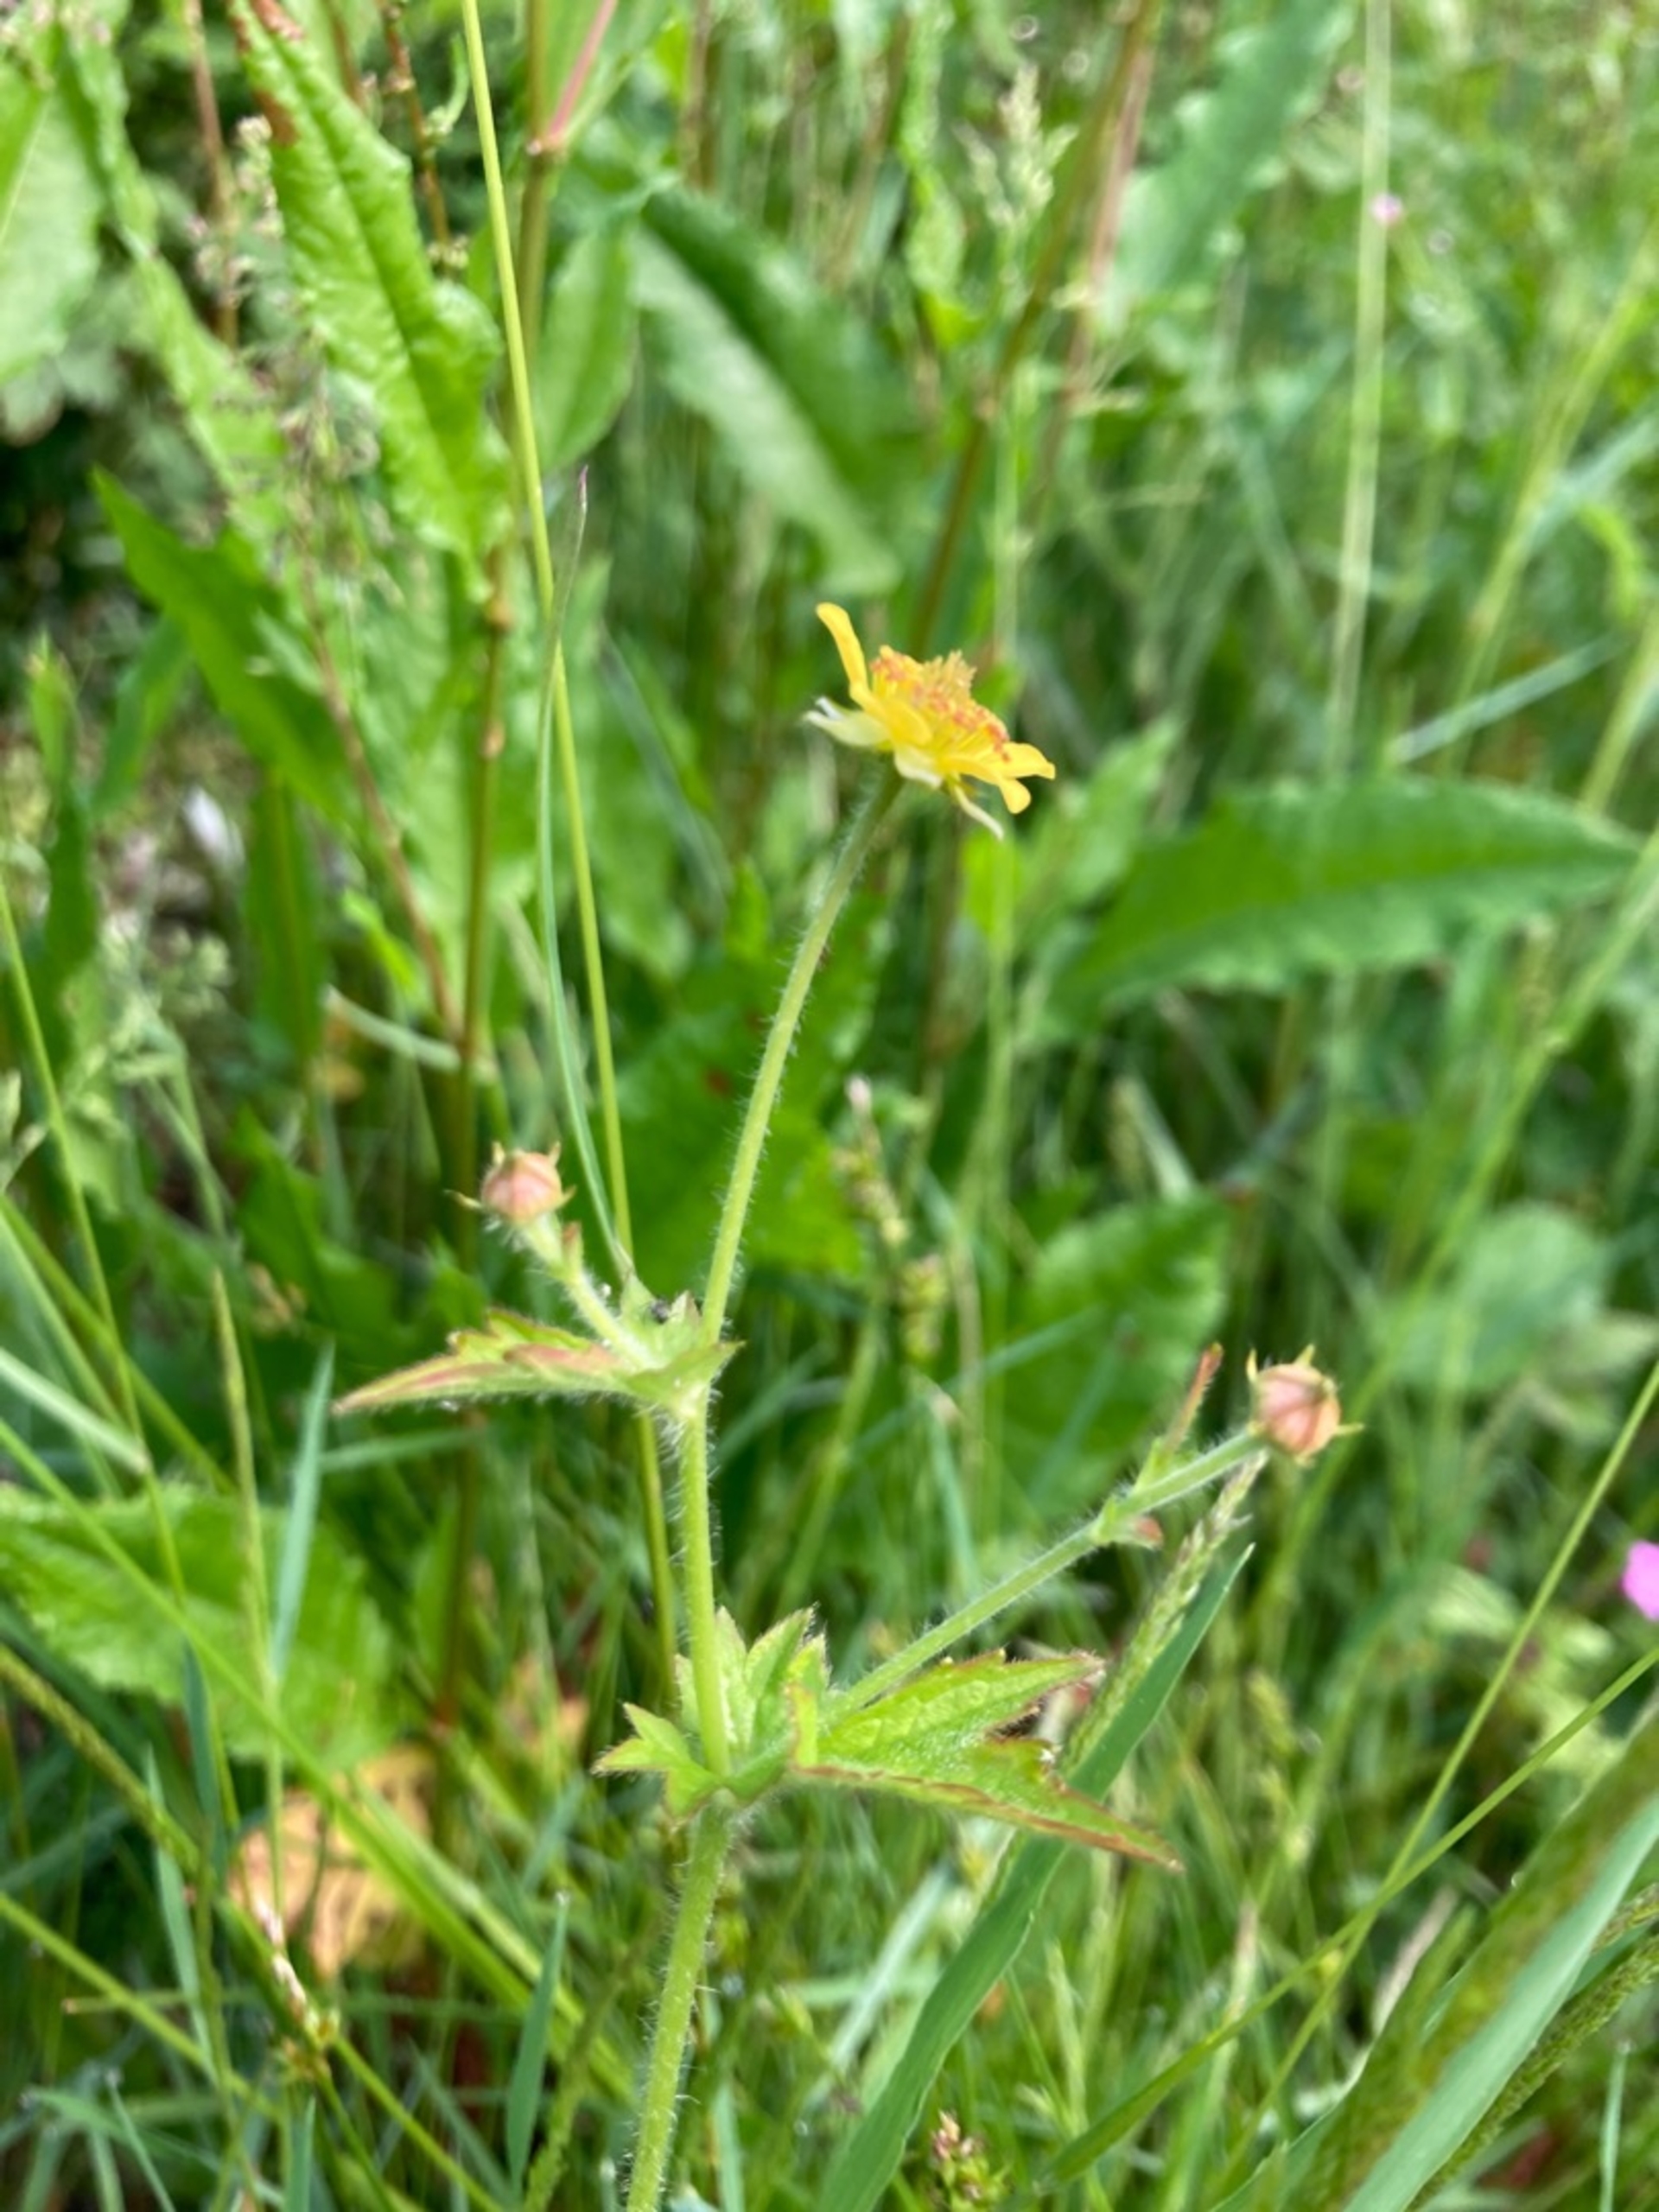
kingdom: Plantae
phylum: Tracheophyta
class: Magnoliopsida
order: Rosales
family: Rosaceae
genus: Geum
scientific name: Geum urbanum
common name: Feber-nellikerod
